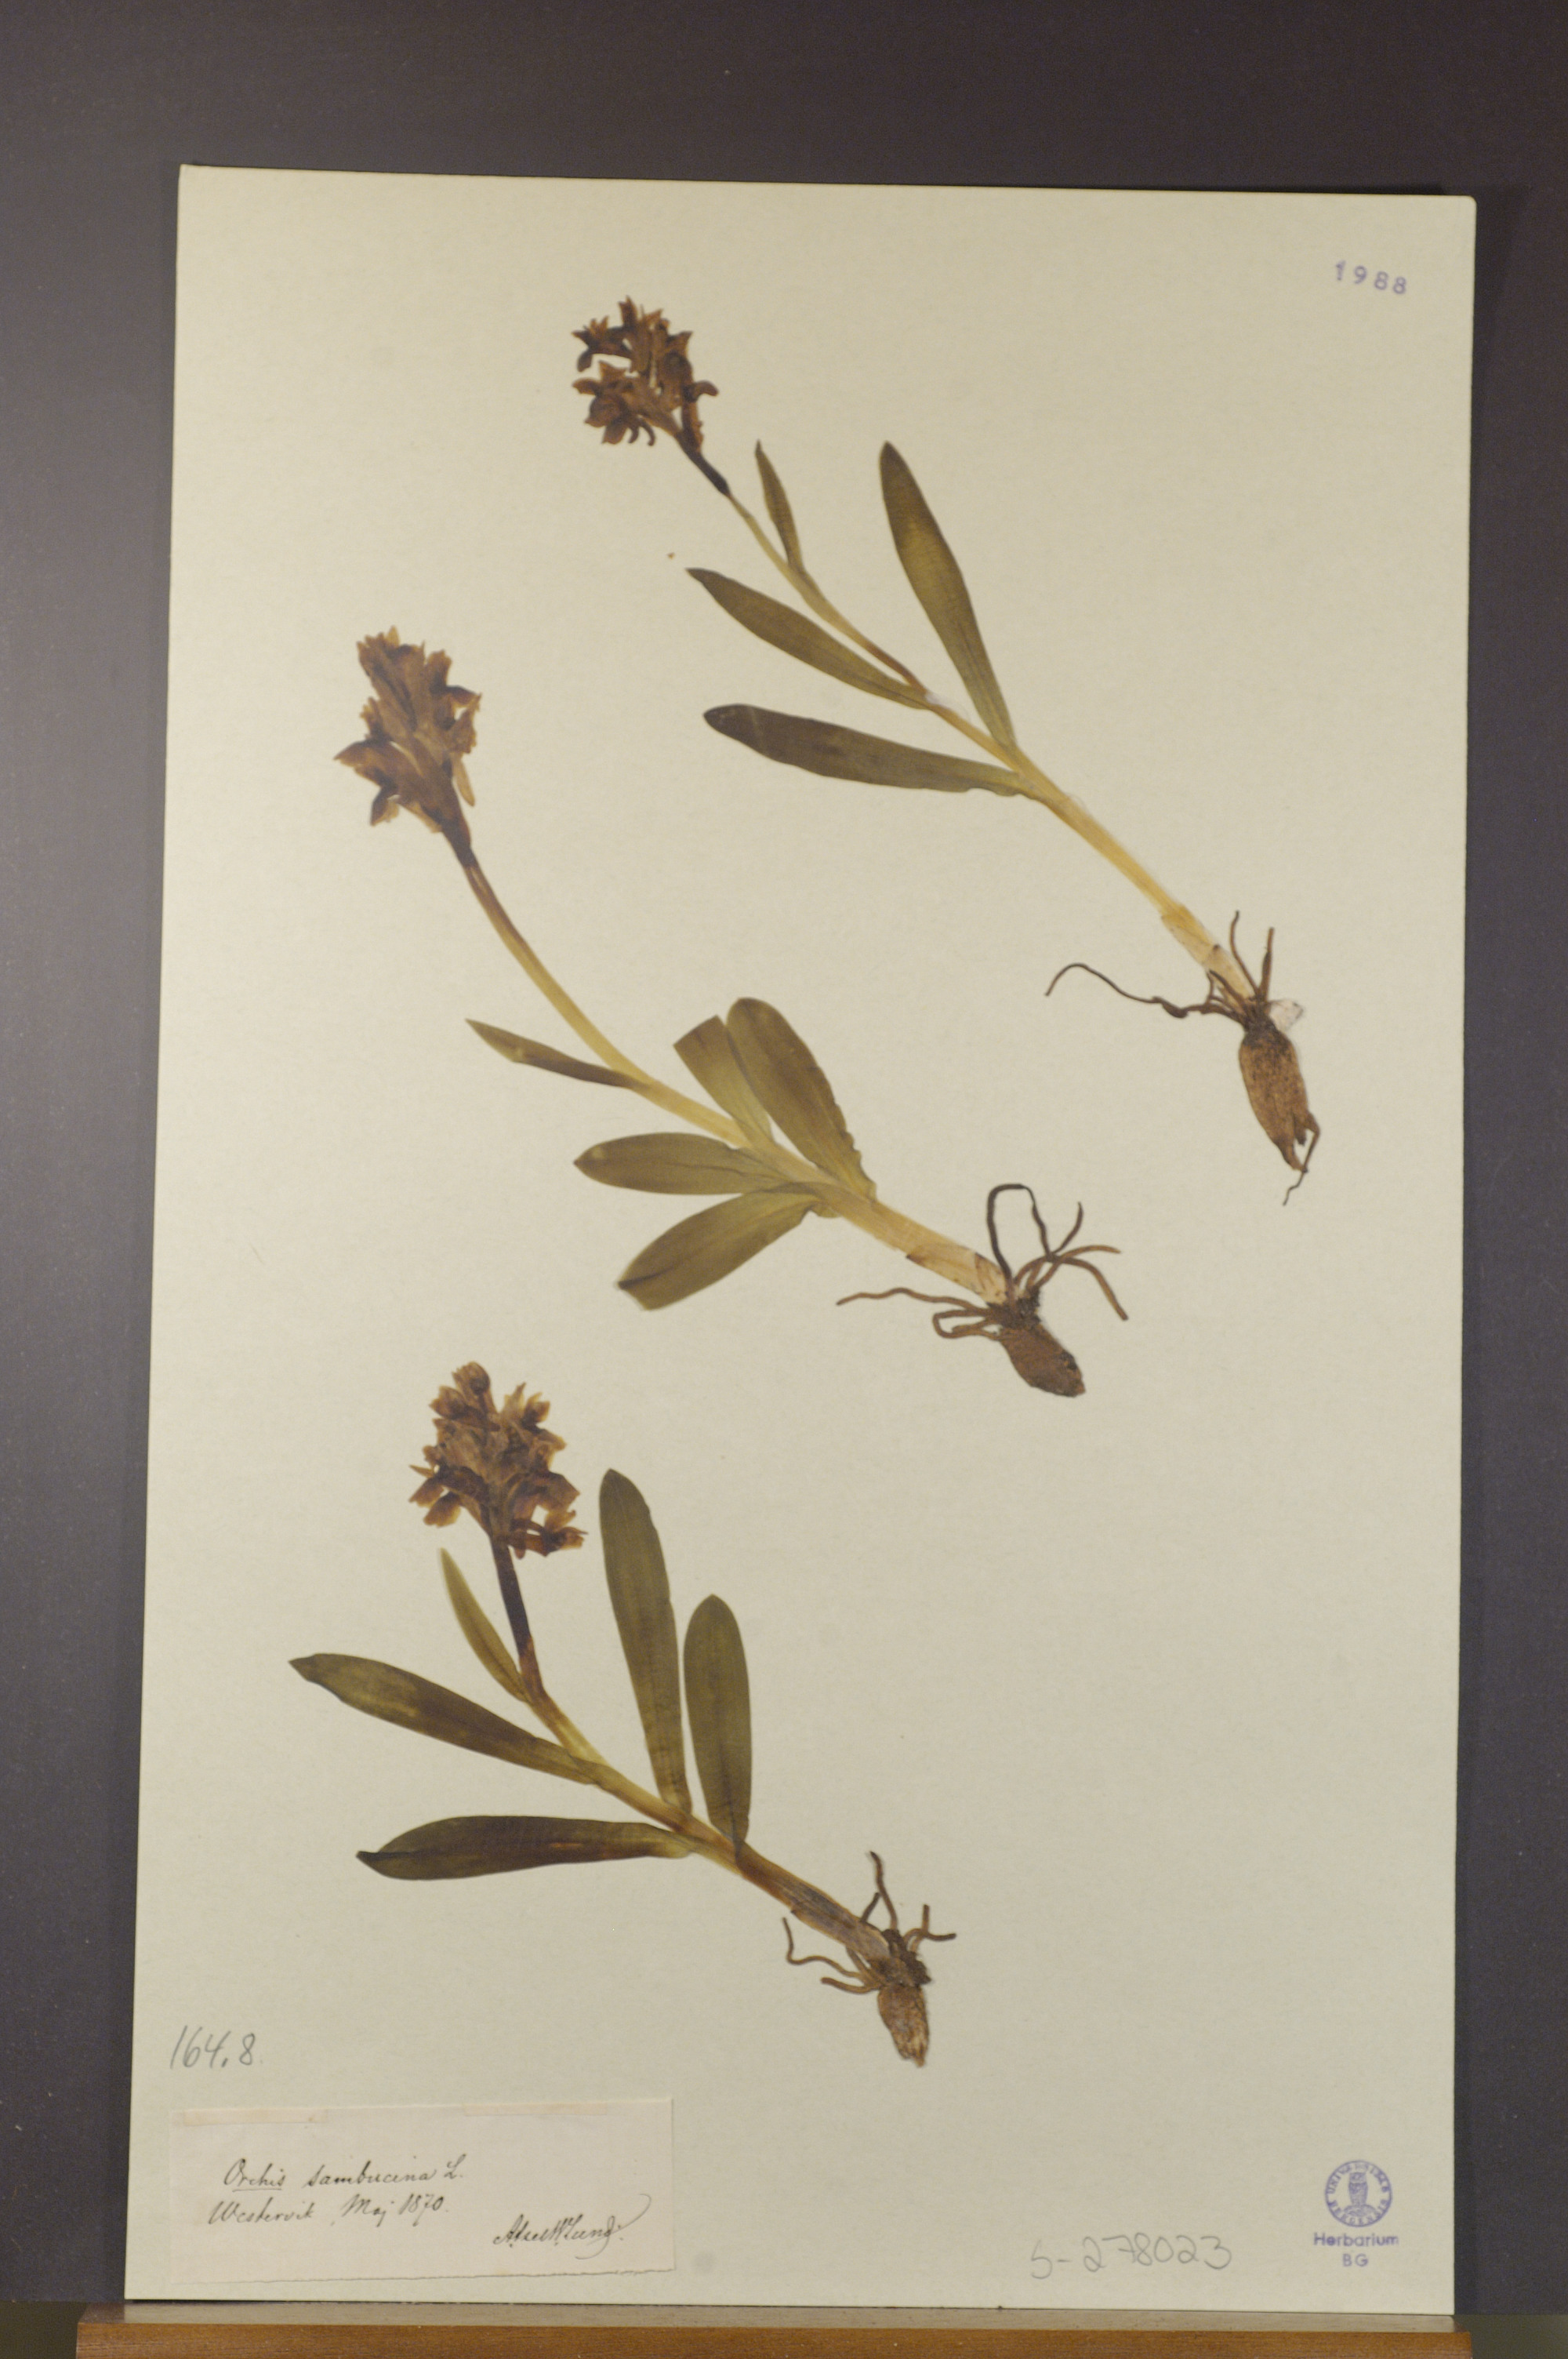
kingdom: Plantae
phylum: Tracheophyta
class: Liliopsida
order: Asparagales
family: Orchidaceae
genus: Dactylorhiza
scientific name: Dactylorhiza sambucina
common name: Elder-flowered orchid
